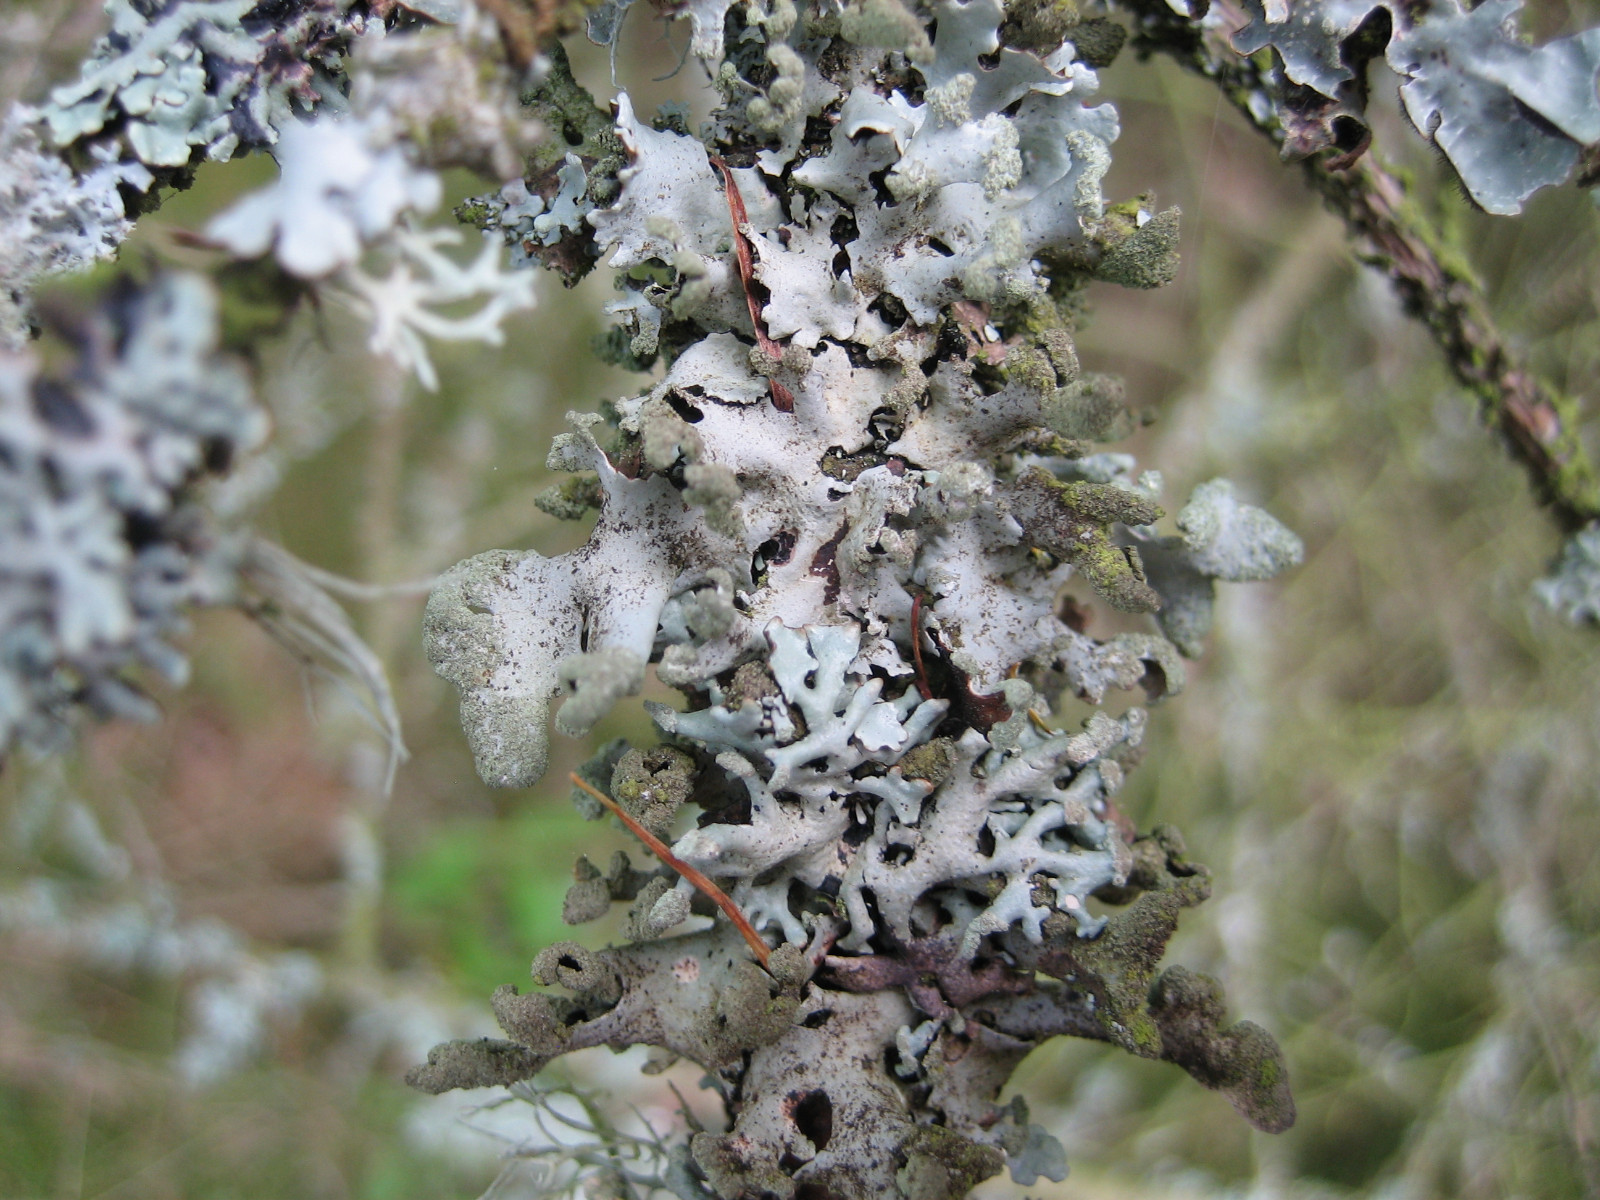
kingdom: Fungi
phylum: Ascomycota
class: Lecanoromycetes
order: Lecanorales
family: Parmeliaceae
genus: Hypotrachyna
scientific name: Hypotrachyna revoluta
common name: bleggrå skållav
